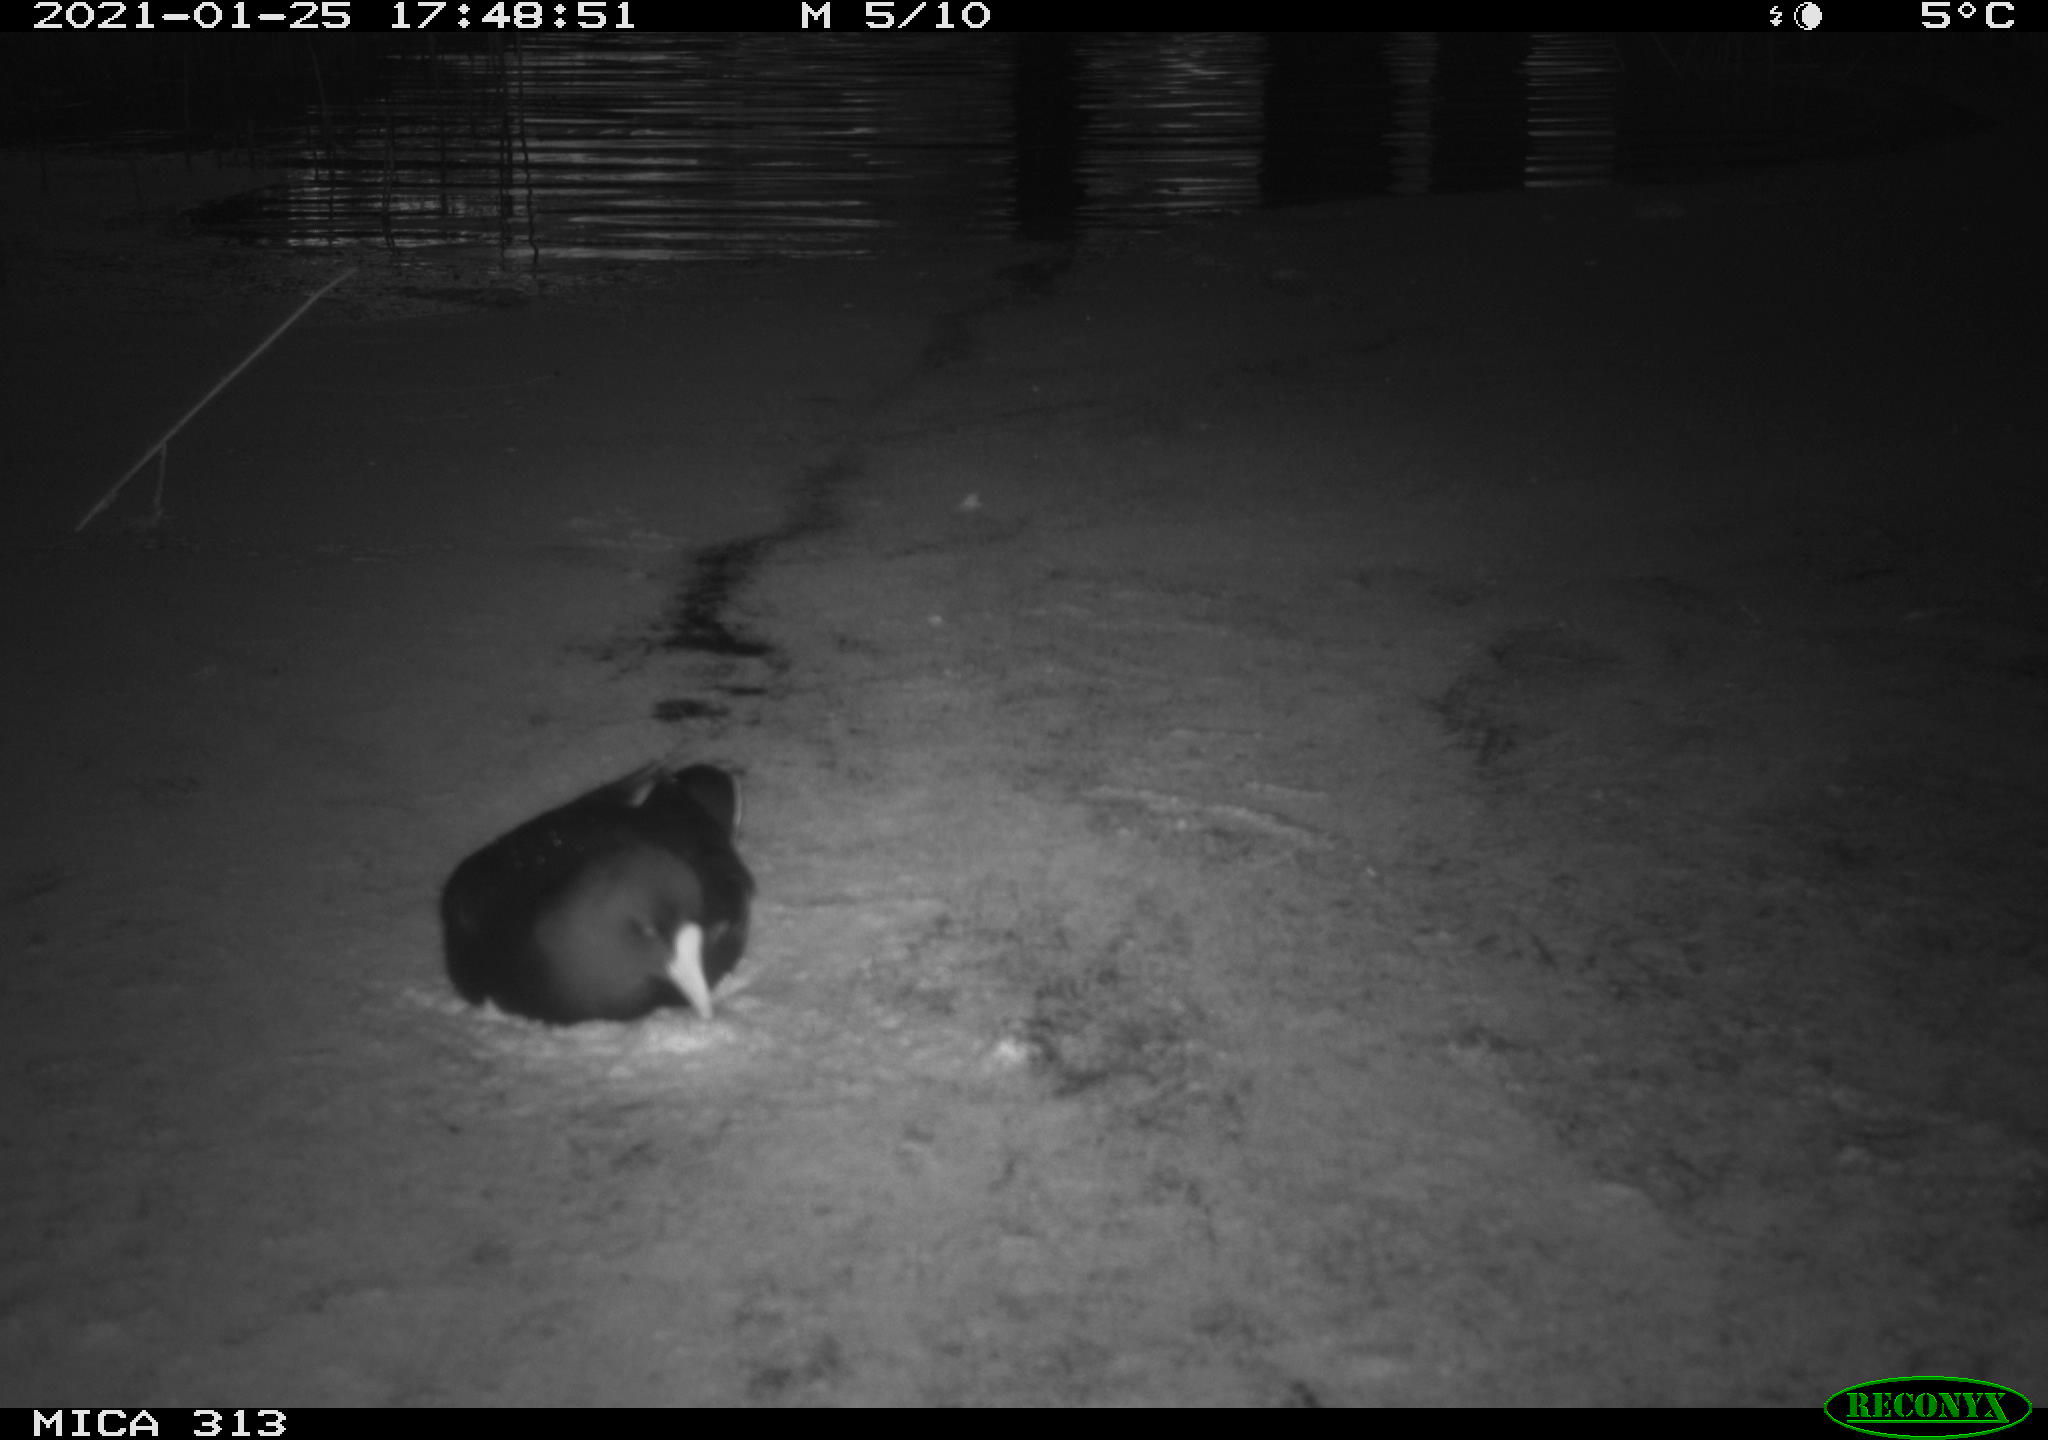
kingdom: Animalia
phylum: Chordata
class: Aves
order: Gruiformes
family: Rallidae
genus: Gallinula
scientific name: Gallinula chloropus
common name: Common moorhen
